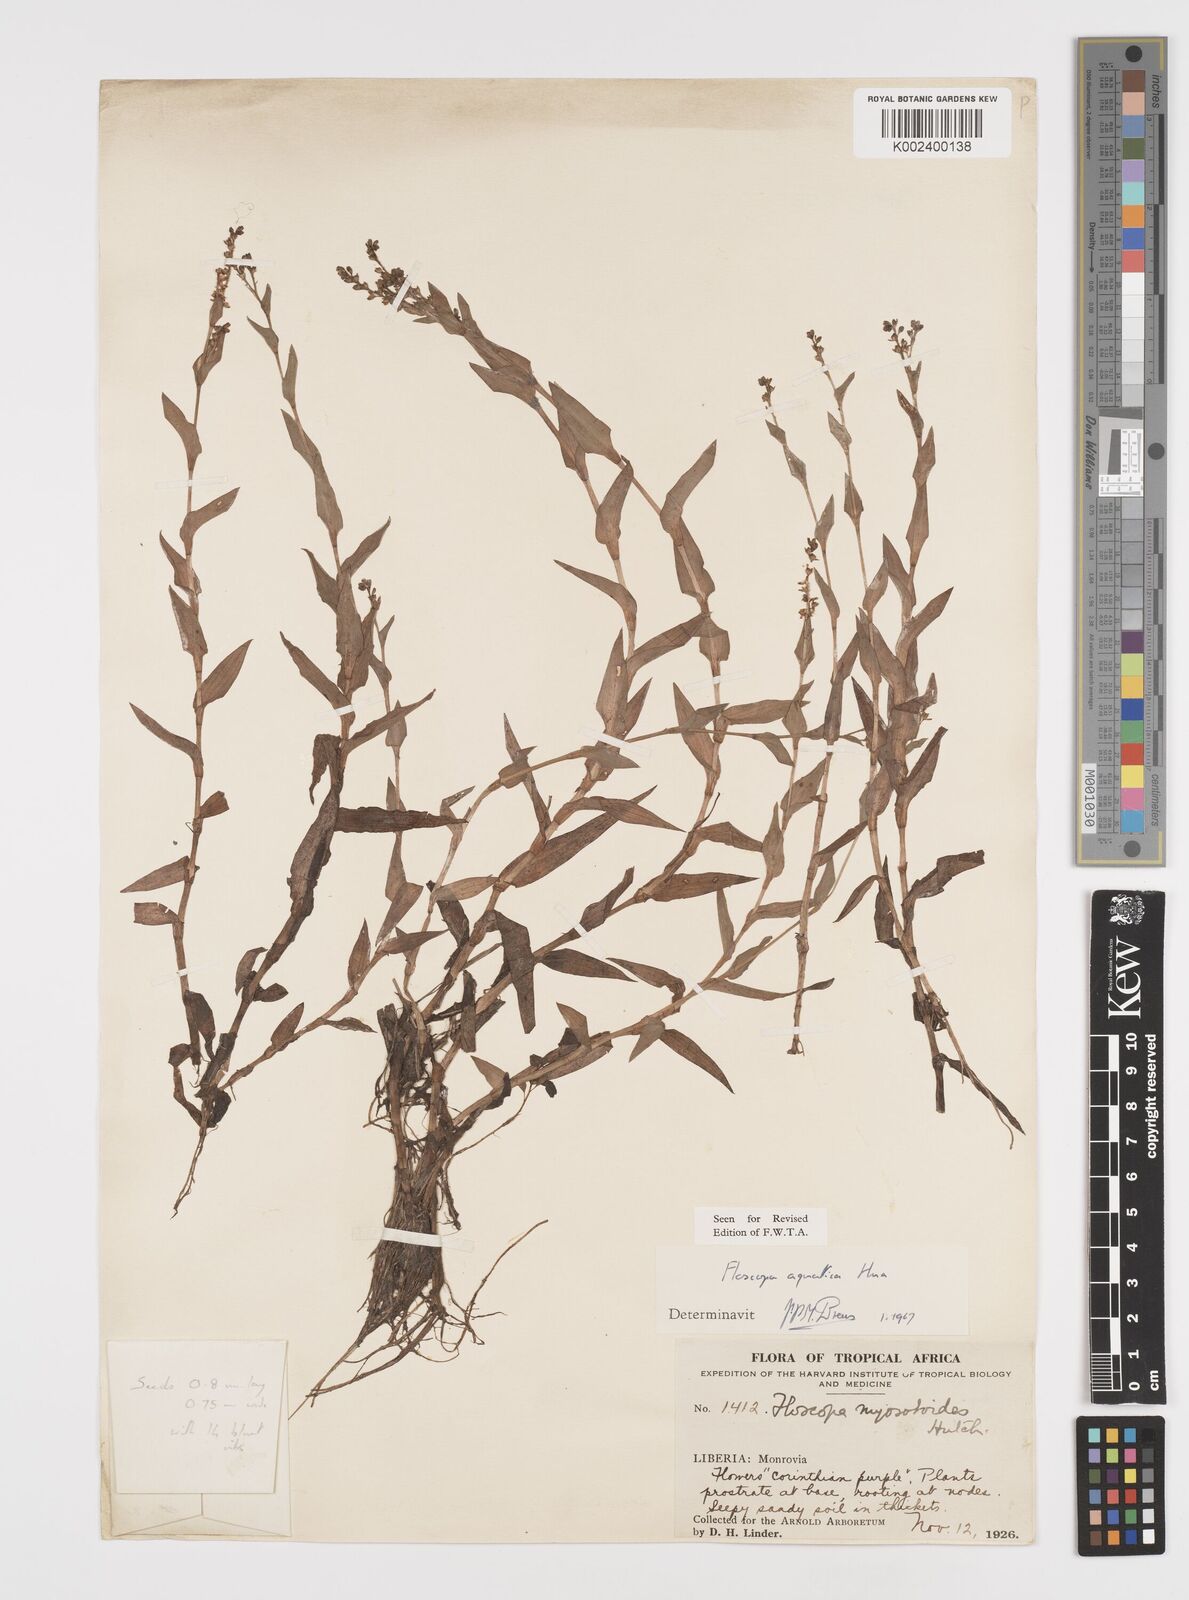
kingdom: Plantae
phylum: Tracheophyta
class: Liliopsida
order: Commelinales
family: Commelinaceae
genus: Floscopa
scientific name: Floscopa aquatica
